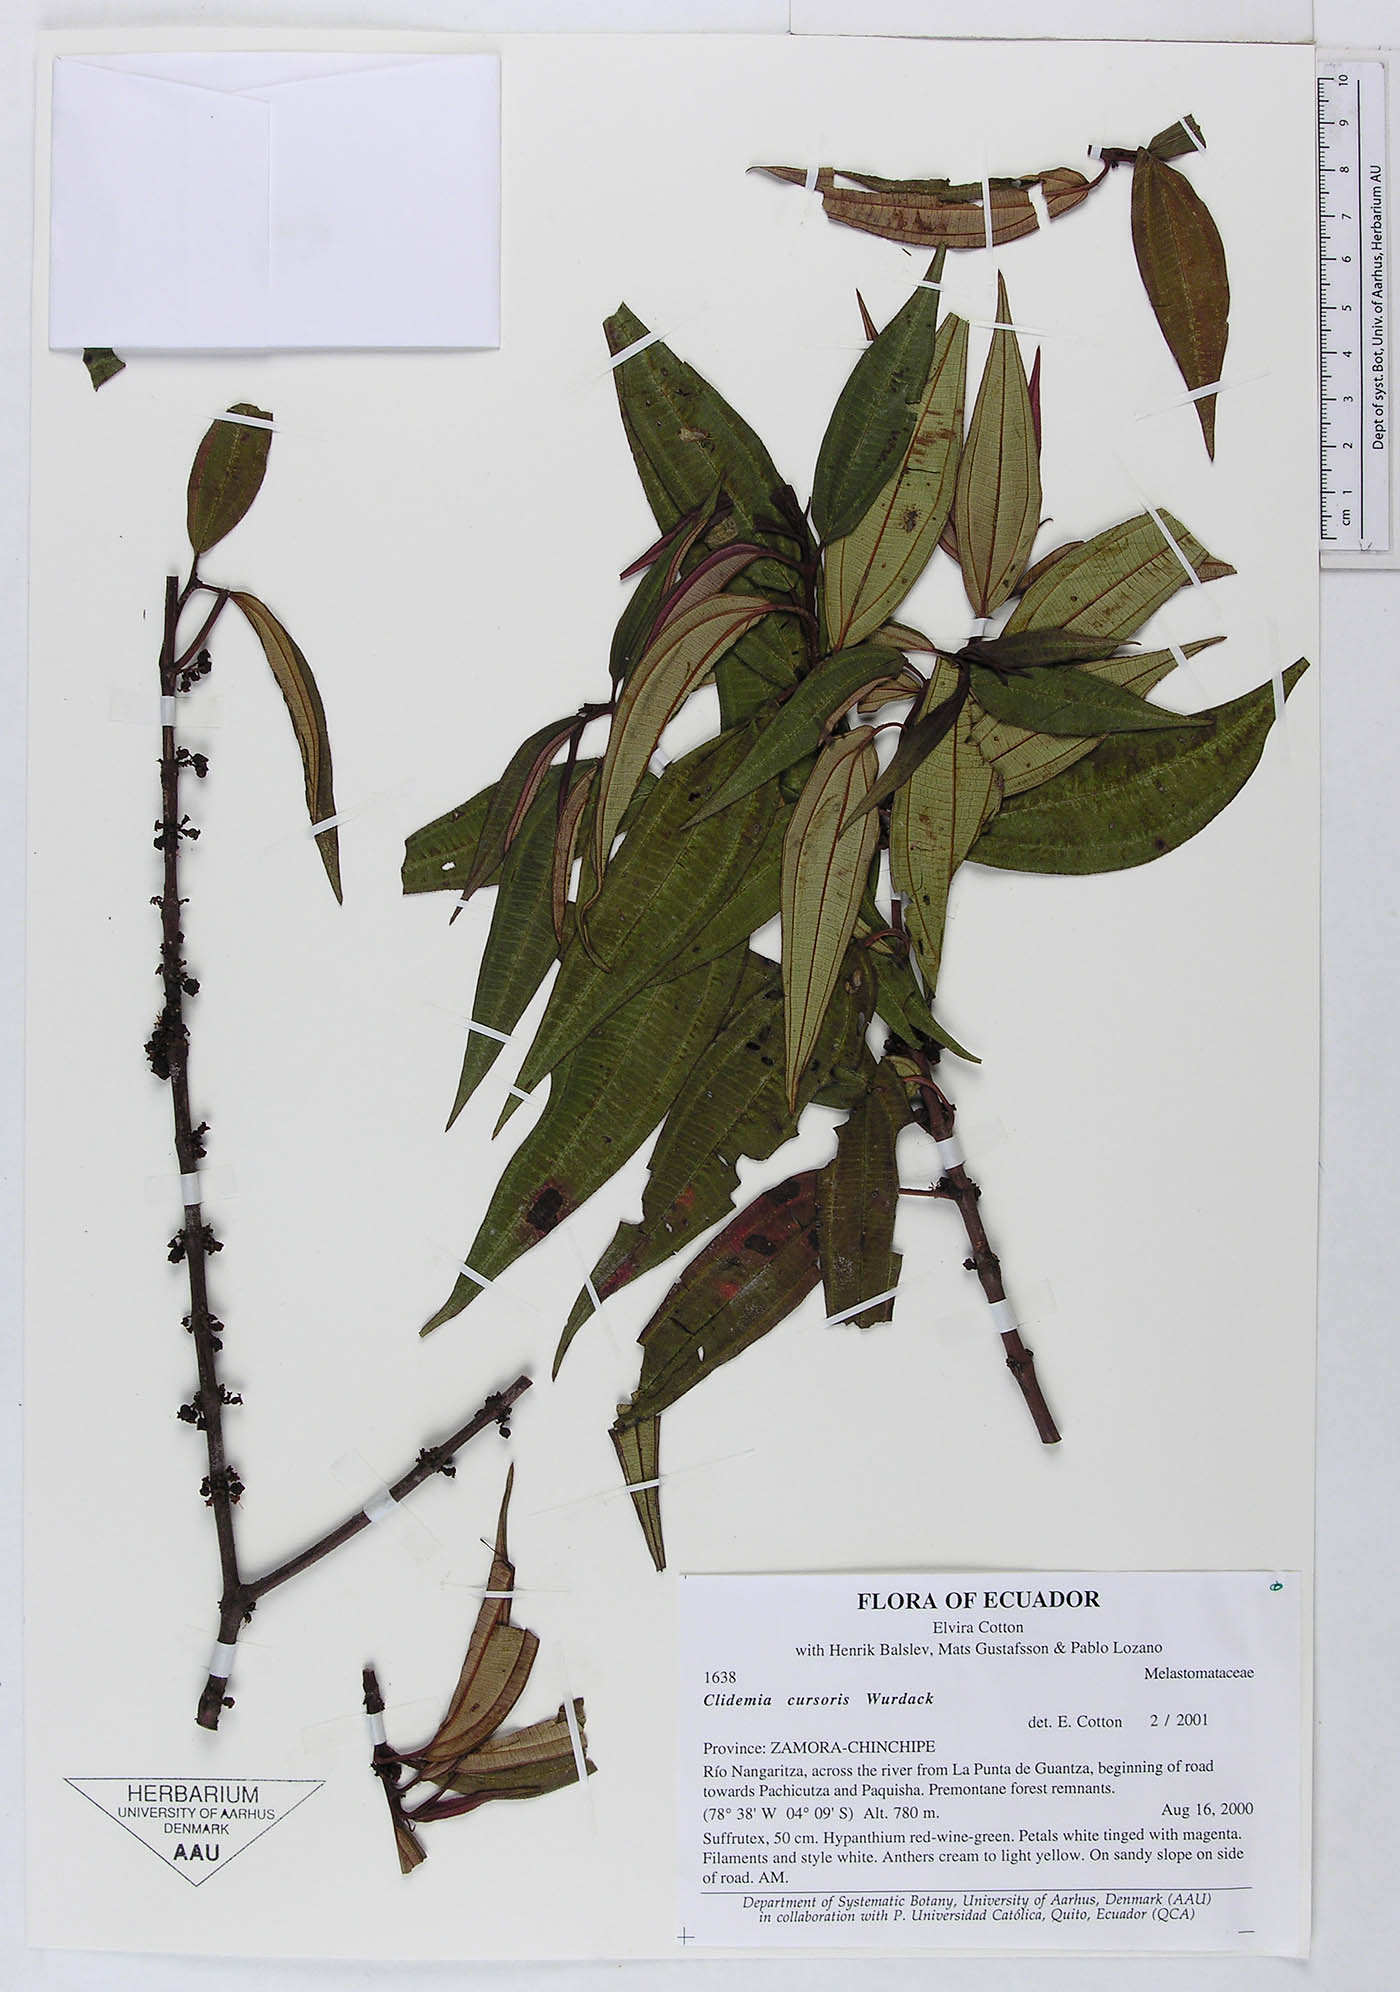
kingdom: Plantae
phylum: Tracheophyta
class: Magnoliopsida
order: Myrtales
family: Melastomataceae
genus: Miconia
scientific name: Miconia cursoris
